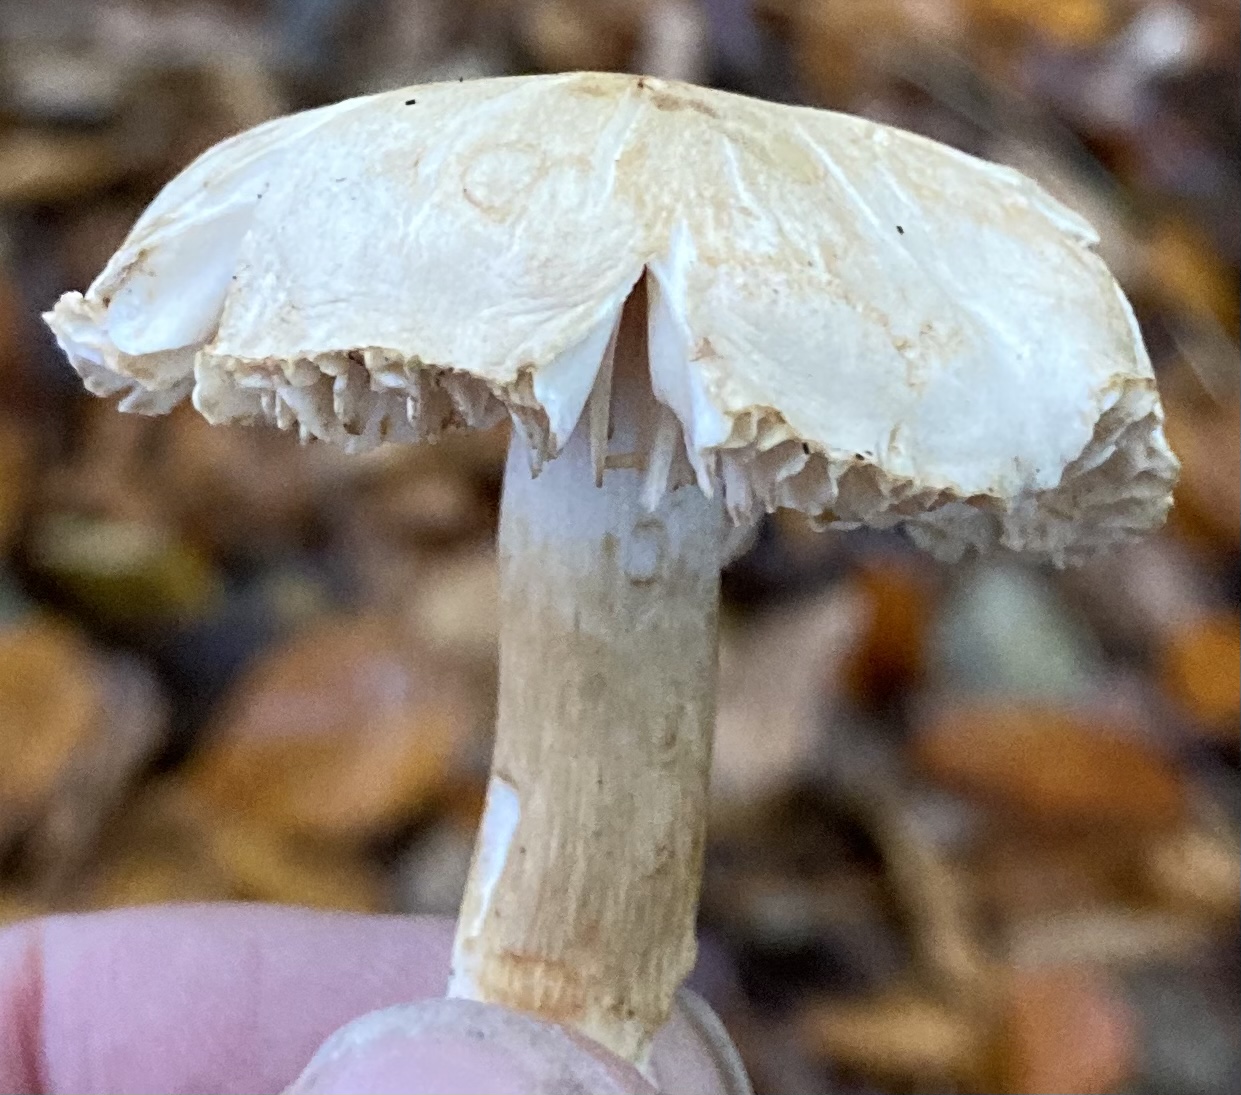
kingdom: Fungi
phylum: Basidiomycota
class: Agaricomycetes
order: Agaricales
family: Tricholomataceae
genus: Tricholoma
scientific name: Tricholoma lascivum
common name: stinkende ridderhat
